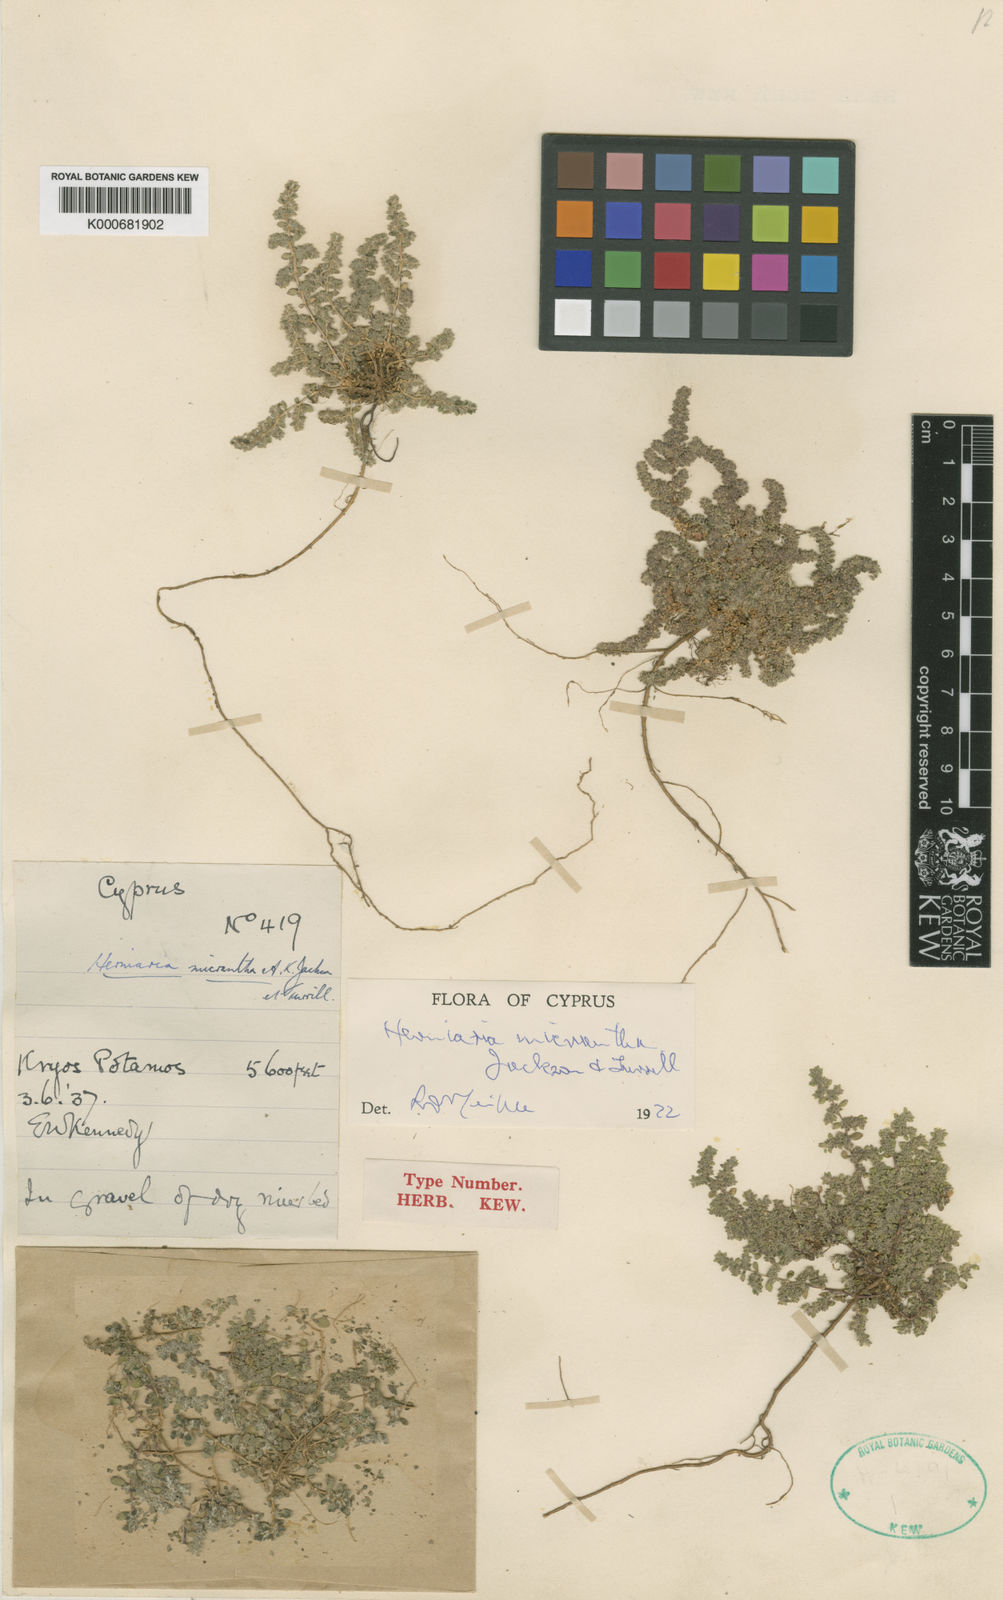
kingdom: Plantae
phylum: Tracheophyta
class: Magnoliopsida
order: Caryophyllales
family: Caryophyllaceae
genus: Herniaria
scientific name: Herniaria micrantha
